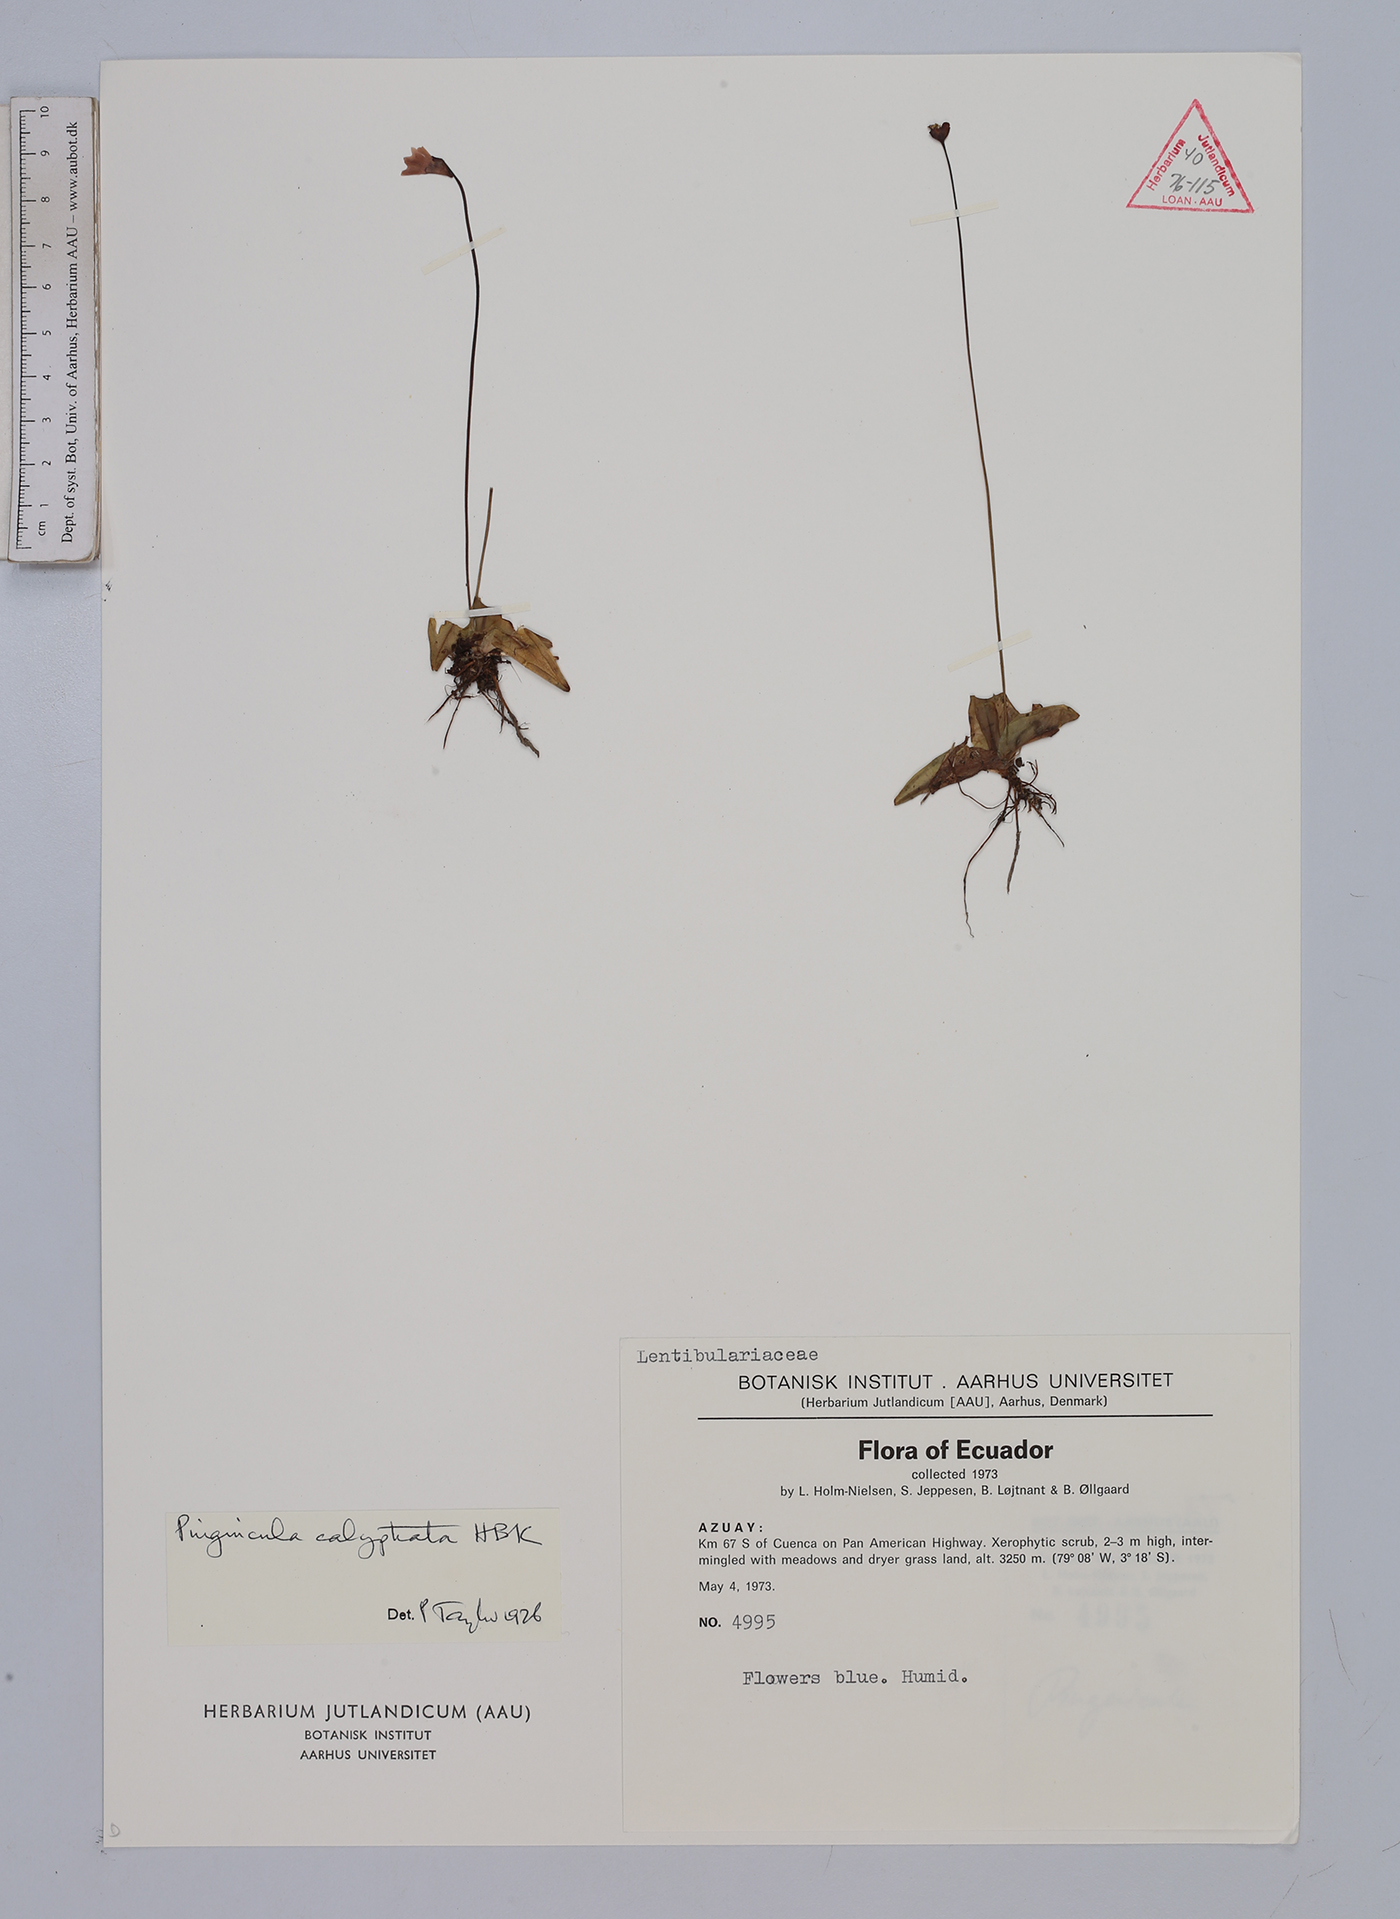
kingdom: Plantae
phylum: Tracheophyta
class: Magnoliopsida
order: Lamiales
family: Lentibulariaceae
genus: Pinguicula
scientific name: Pinguicula calyptrata
